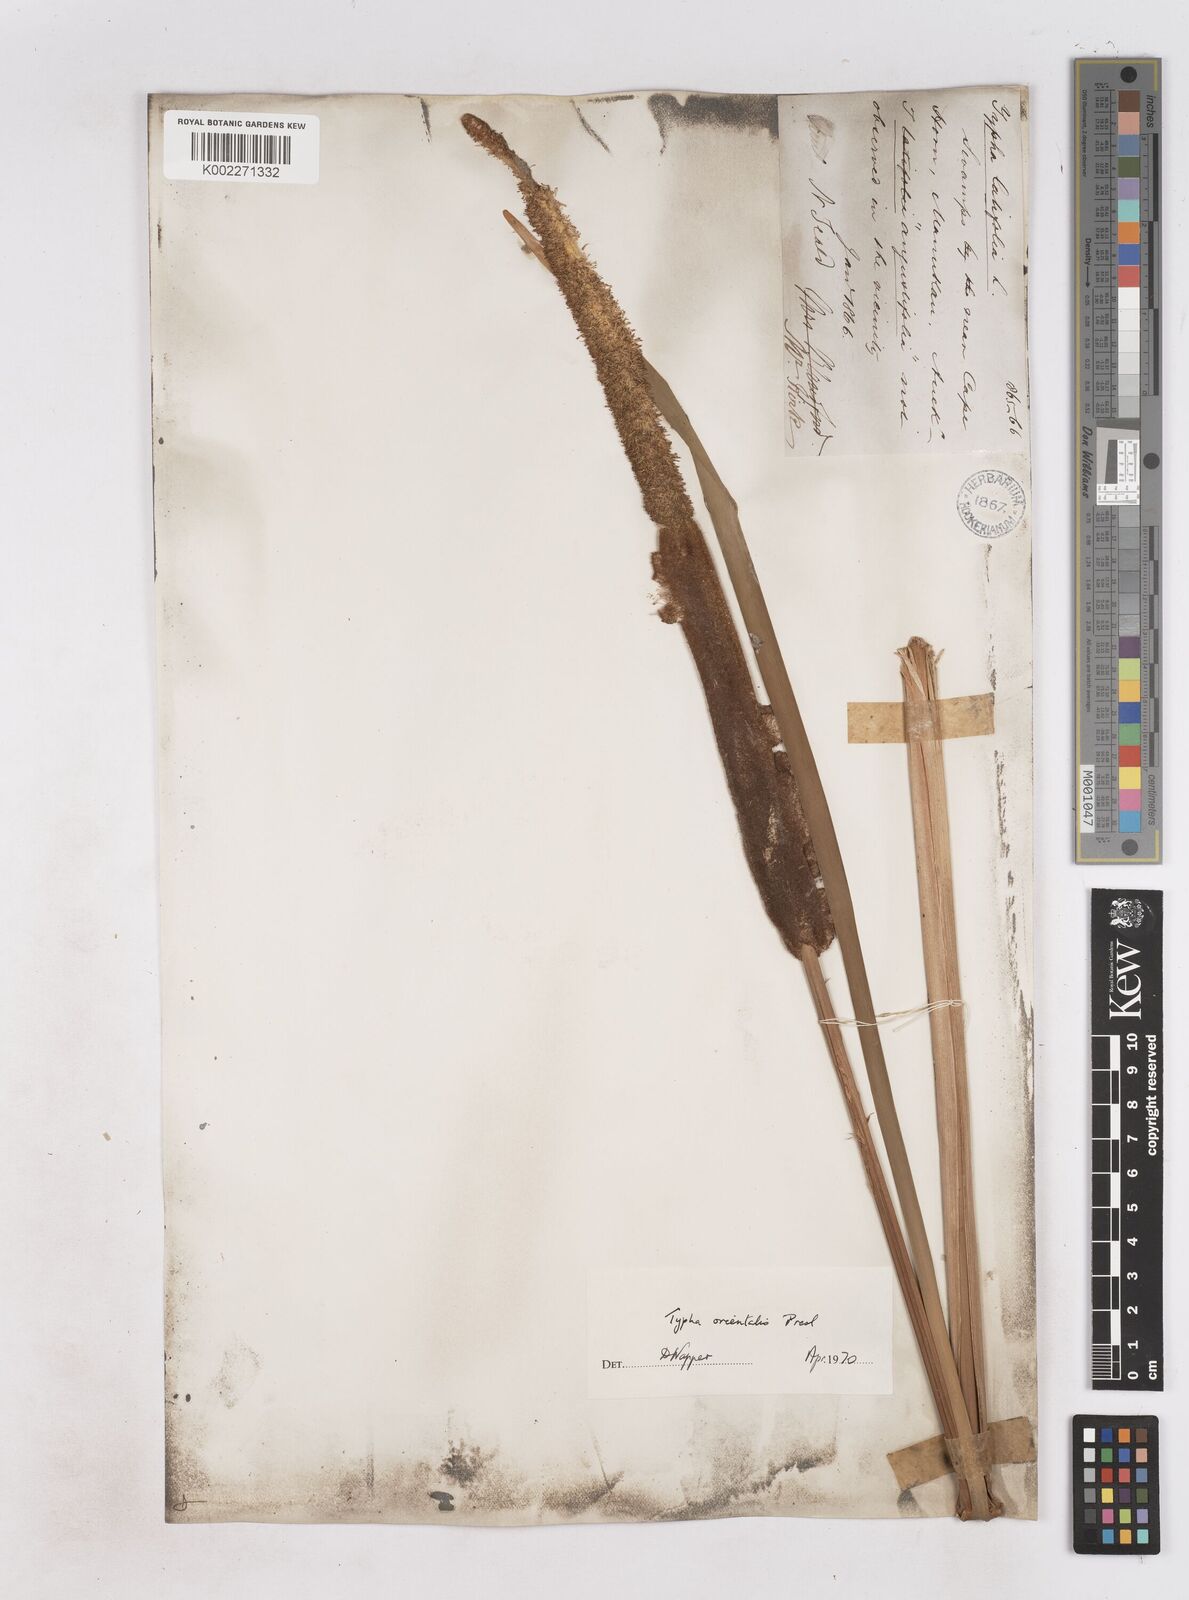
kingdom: Plantae
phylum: Tracheophyta
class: Liliopsida
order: Poales
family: Typhaceae
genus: Typha
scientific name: Typha orientalis
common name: Bullrush
